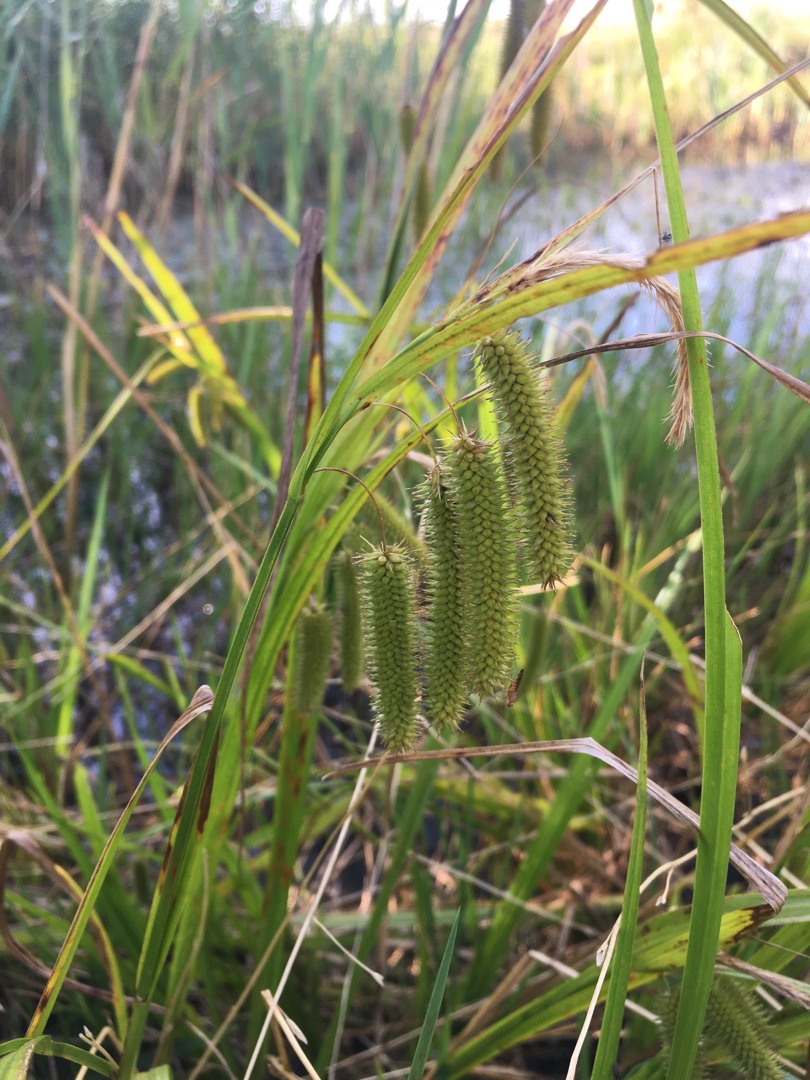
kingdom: Plantae
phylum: Tracheophyta
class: Liliopsida
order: Poales
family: Cyperaceae
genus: Carex
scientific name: Carex pseudocyperus
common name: Knippe-star
